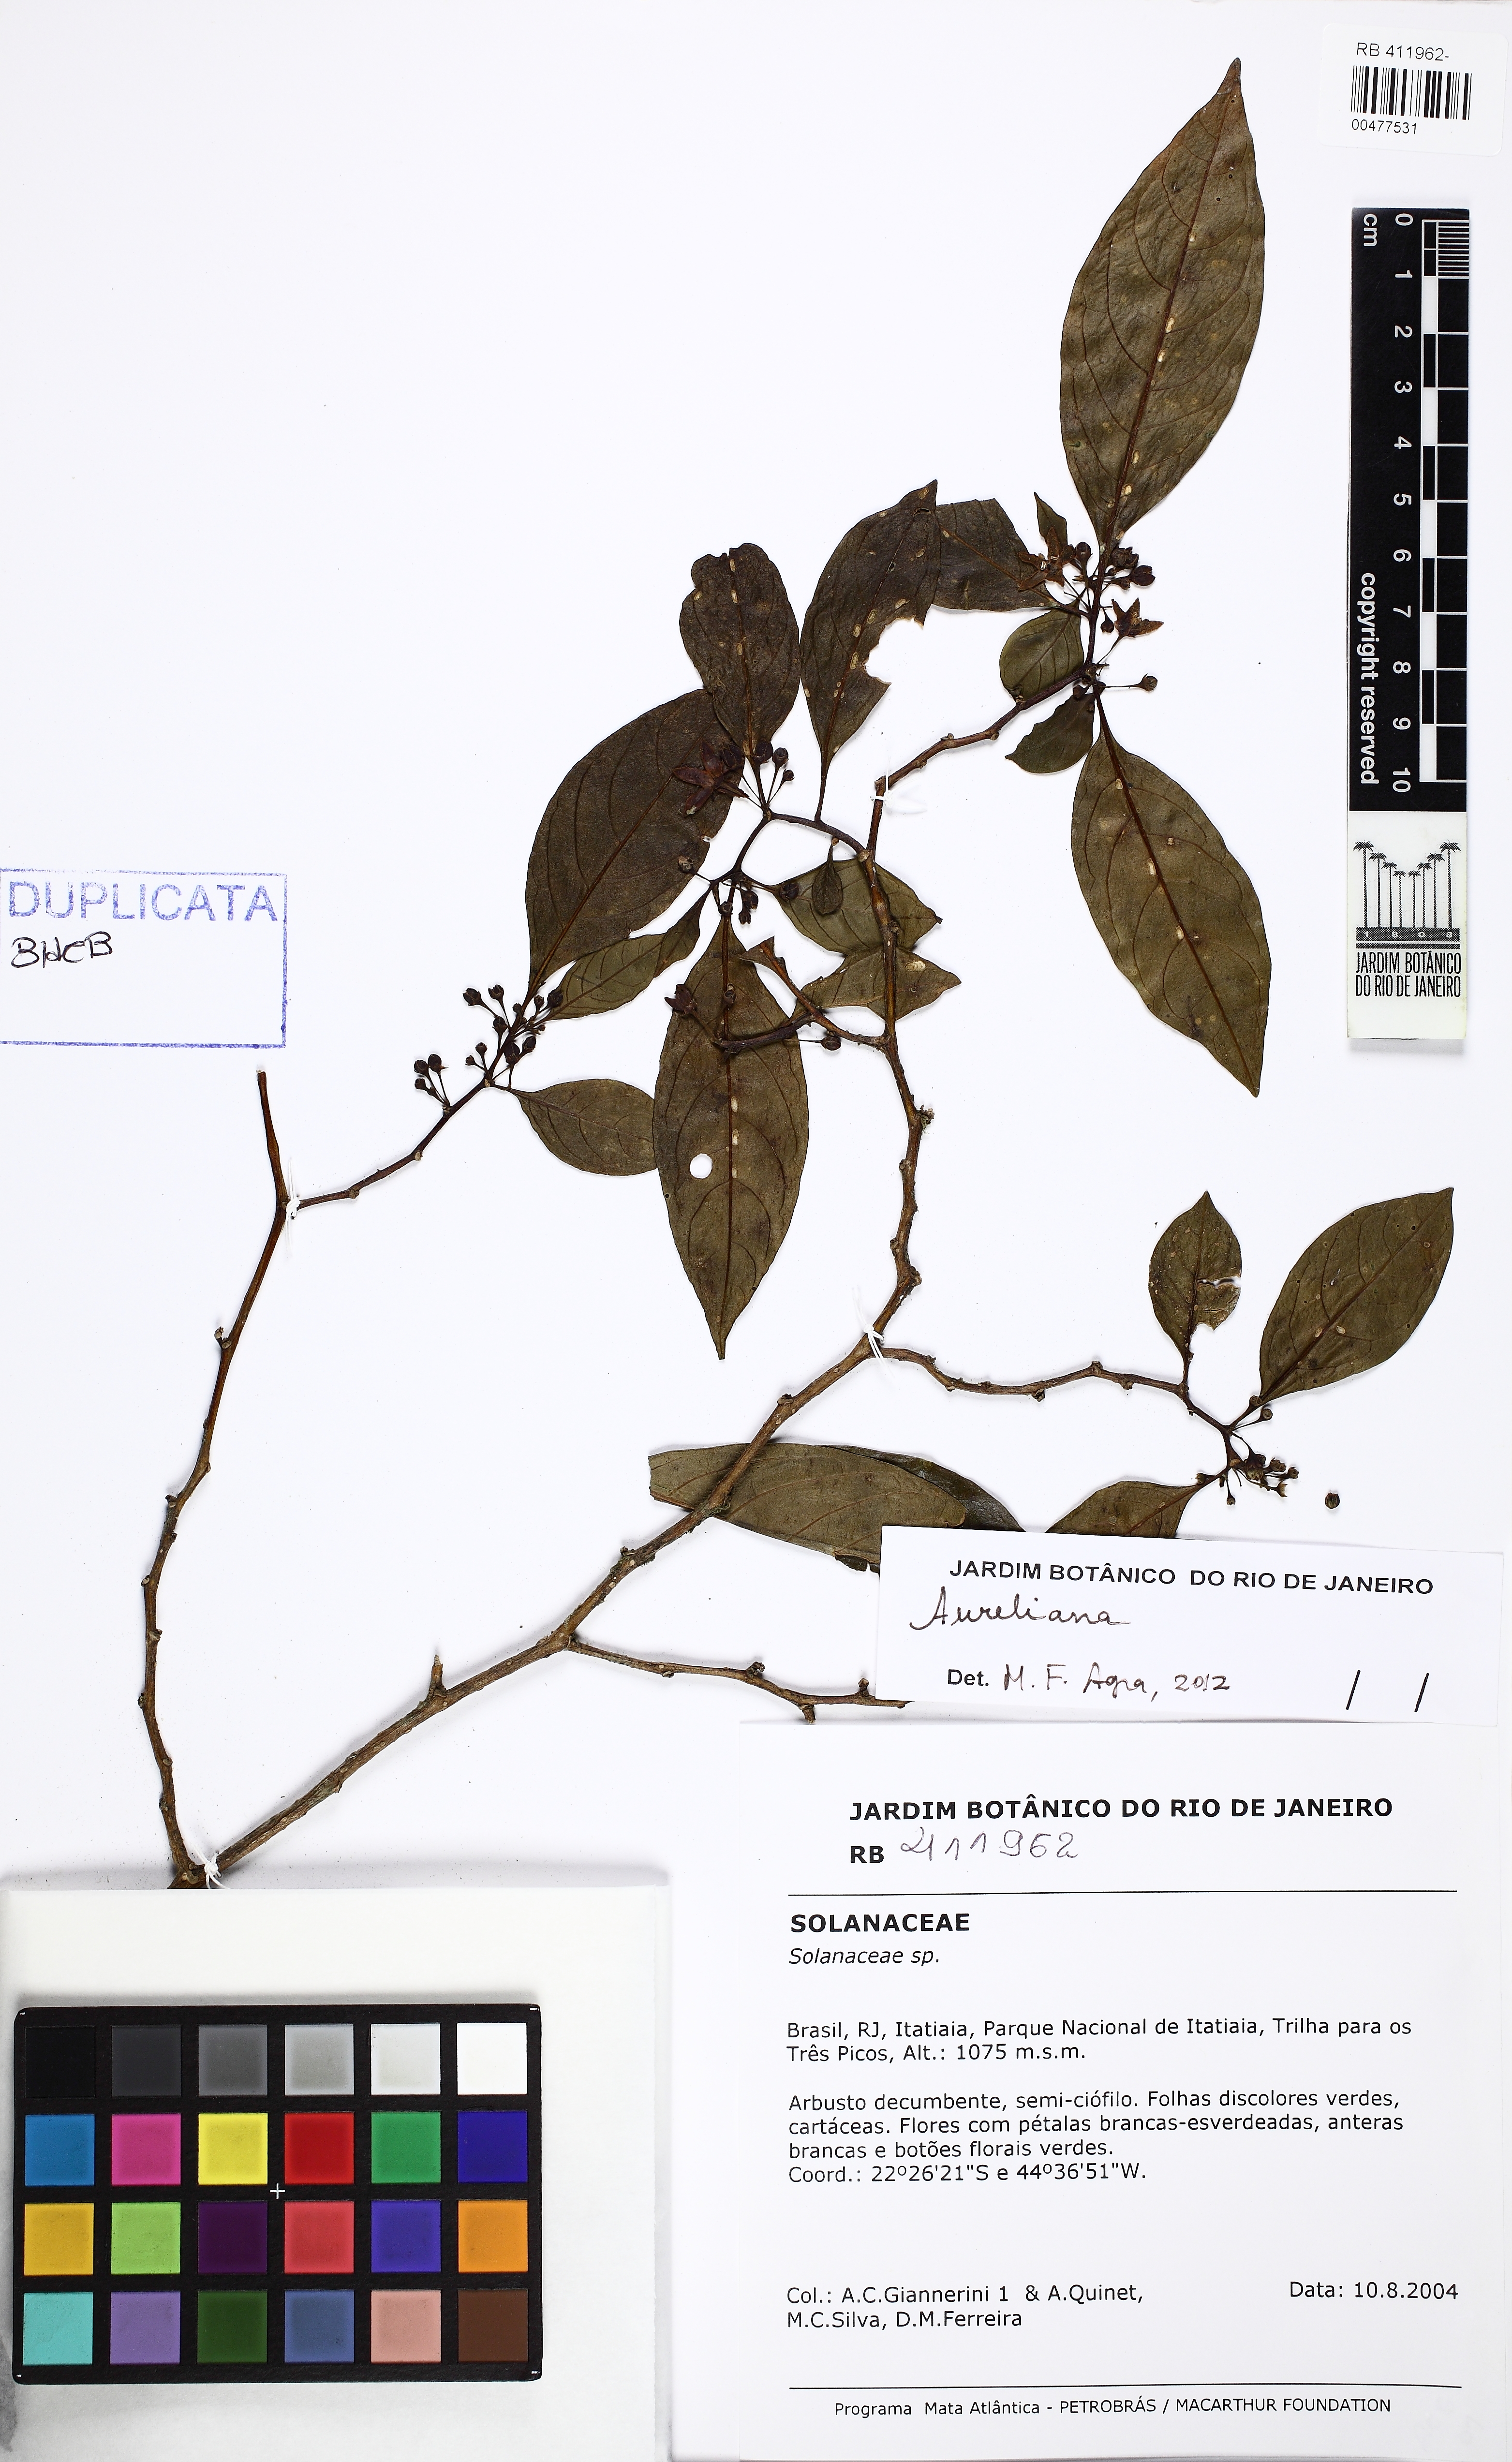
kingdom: Plantae
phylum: Tracheophyta
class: Magnoliopsida
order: Apiales
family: Araliaceae
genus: Aureliana
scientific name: Aureliana
